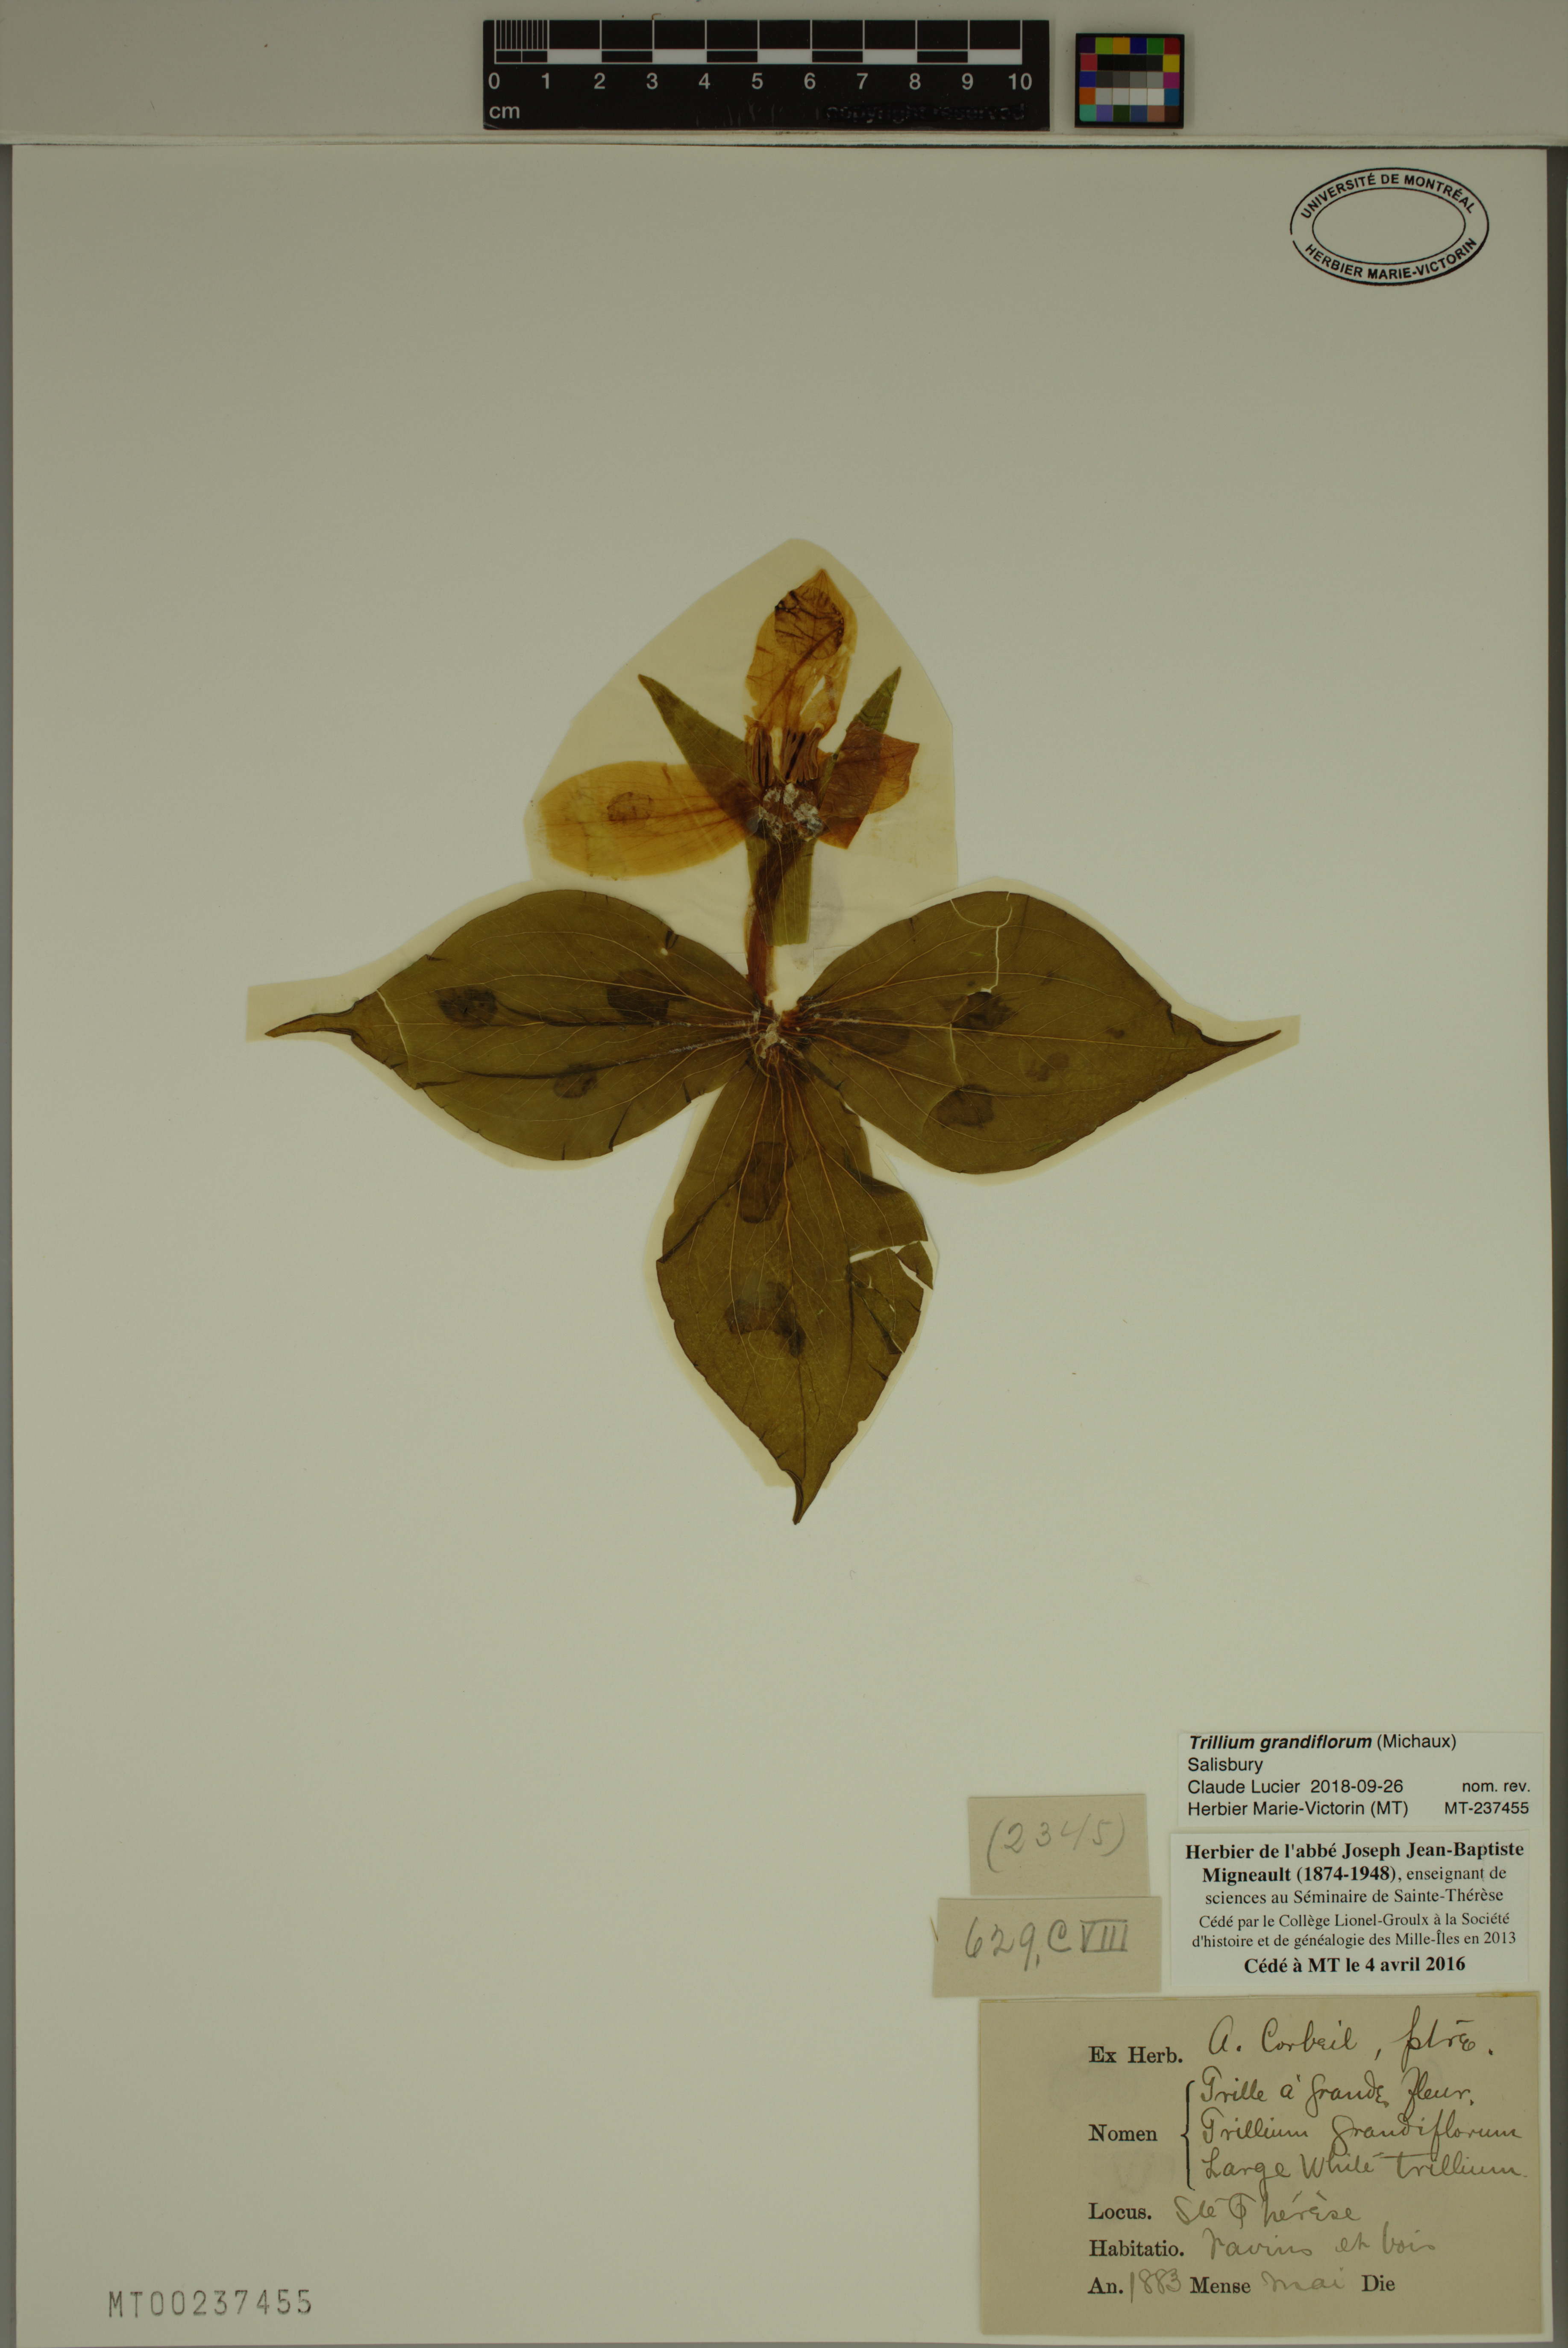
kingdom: Plantae
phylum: Tracheophyta
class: Liliopsida
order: Liliales
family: Melanthiaceae
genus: Trillium
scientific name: Trillium grandiflorum
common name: Great white trillium
